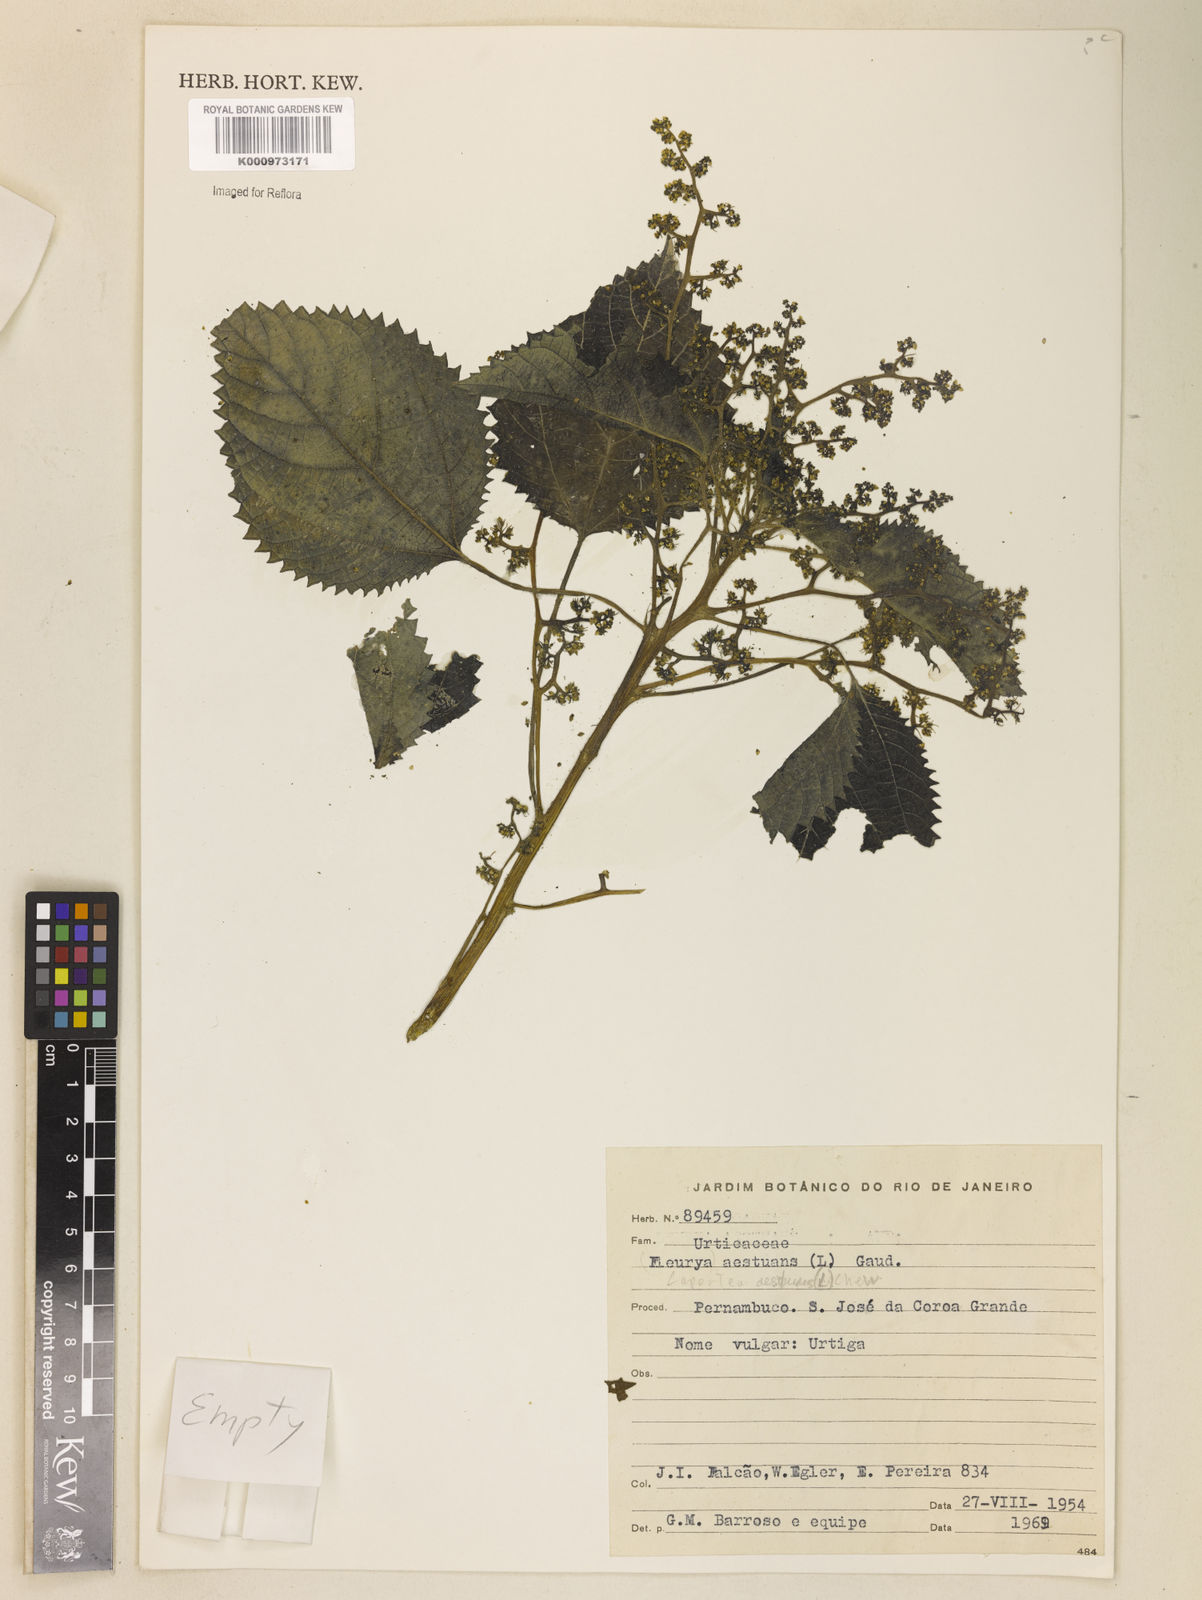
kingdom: Plantae
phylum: Tracheophyta
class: Magnoliopsida
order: Rosales
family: Urticaceae
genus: Laportea
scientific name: Laportea aestuans
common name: West indian woodnettle
